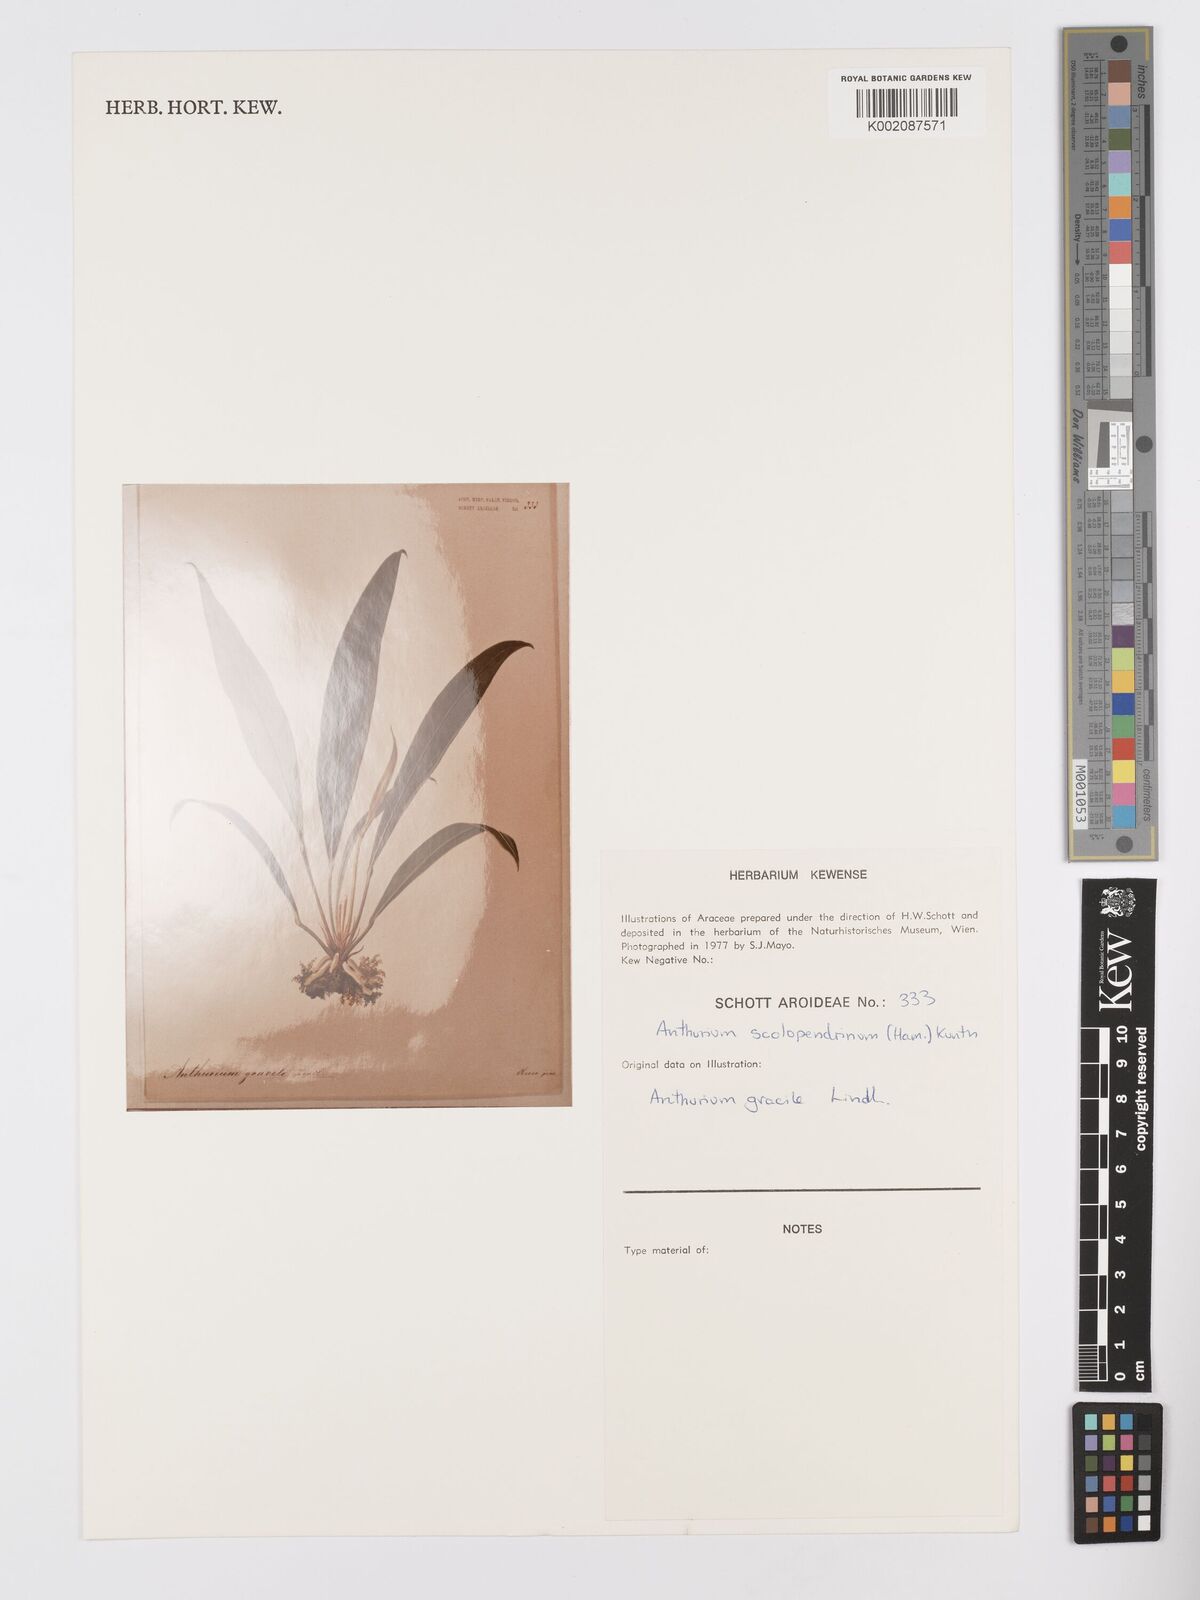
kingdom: Plantae
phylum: Tracheophyta
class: Liliopsida
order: Alismatales
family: Araceae
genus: Anthurium
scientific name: Anthurium gracile
